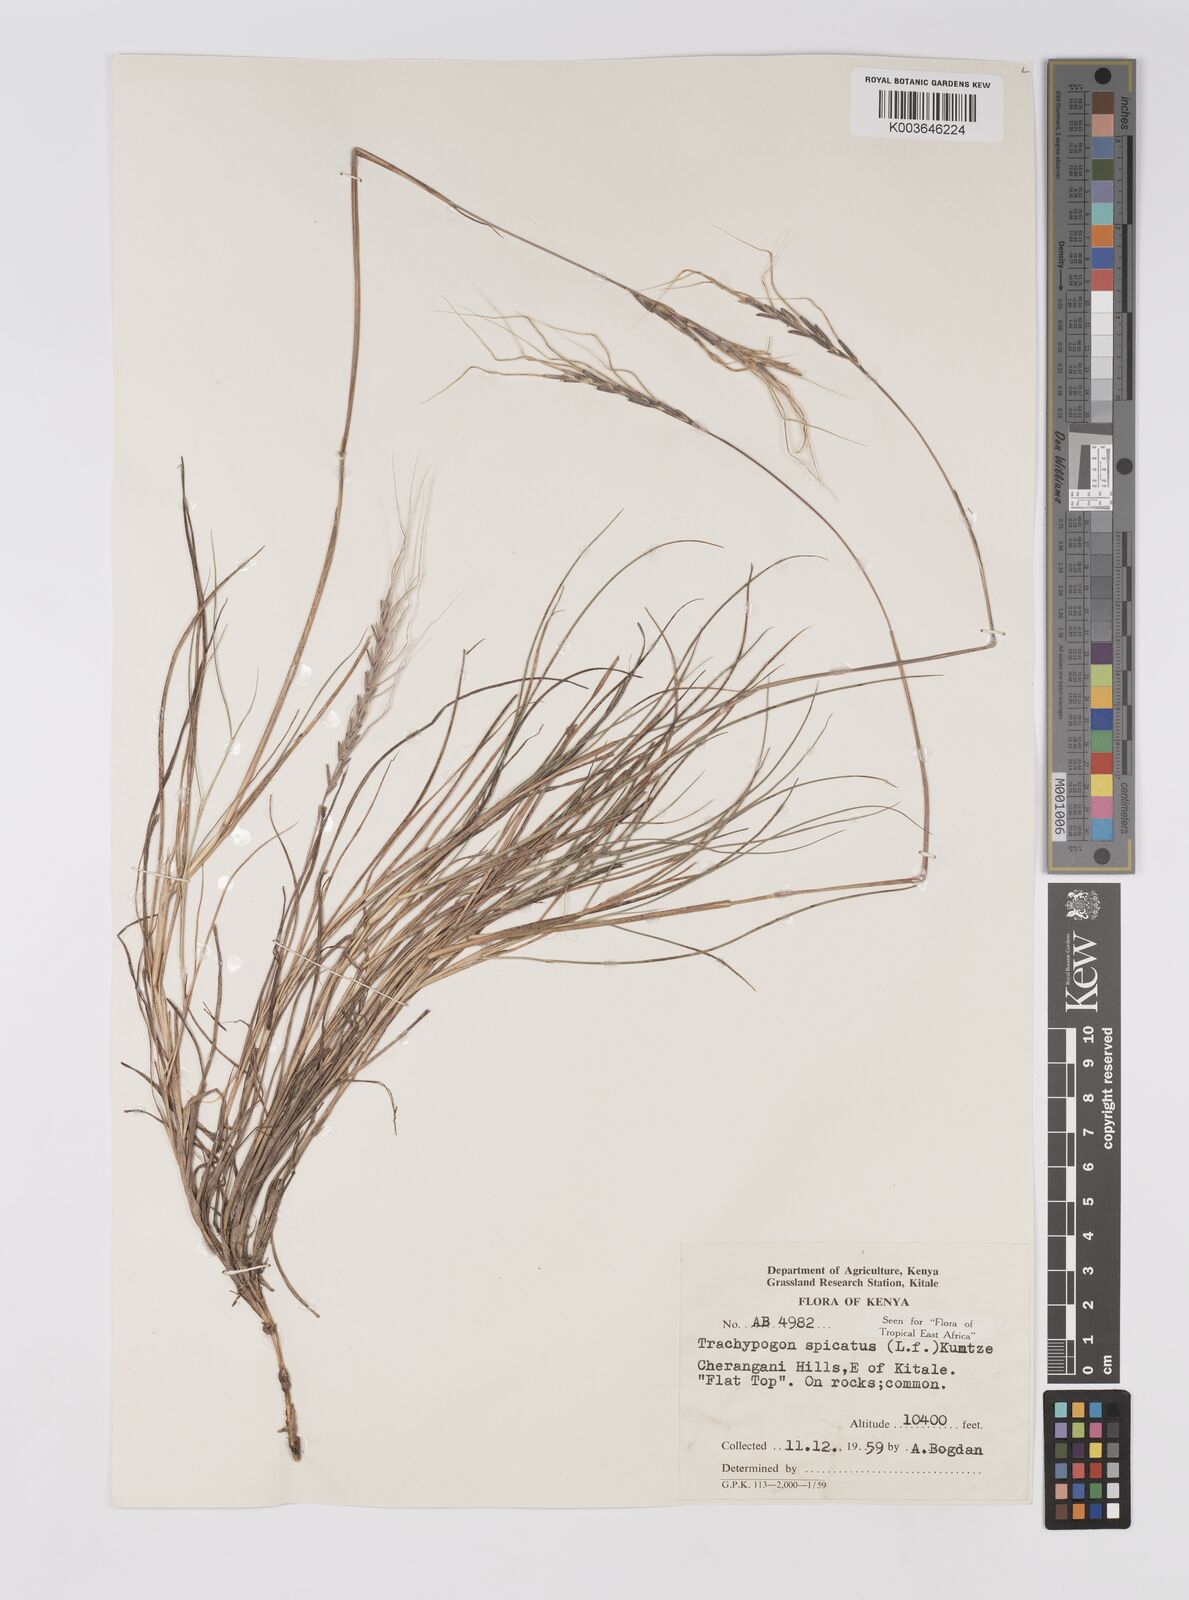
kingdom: Plantae
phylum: Tracheophyta
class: Liliopsida
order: Poales
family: Poaceae
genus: Trachypogon
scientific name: Trachypogon spicatus
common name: Crinkle-awn
